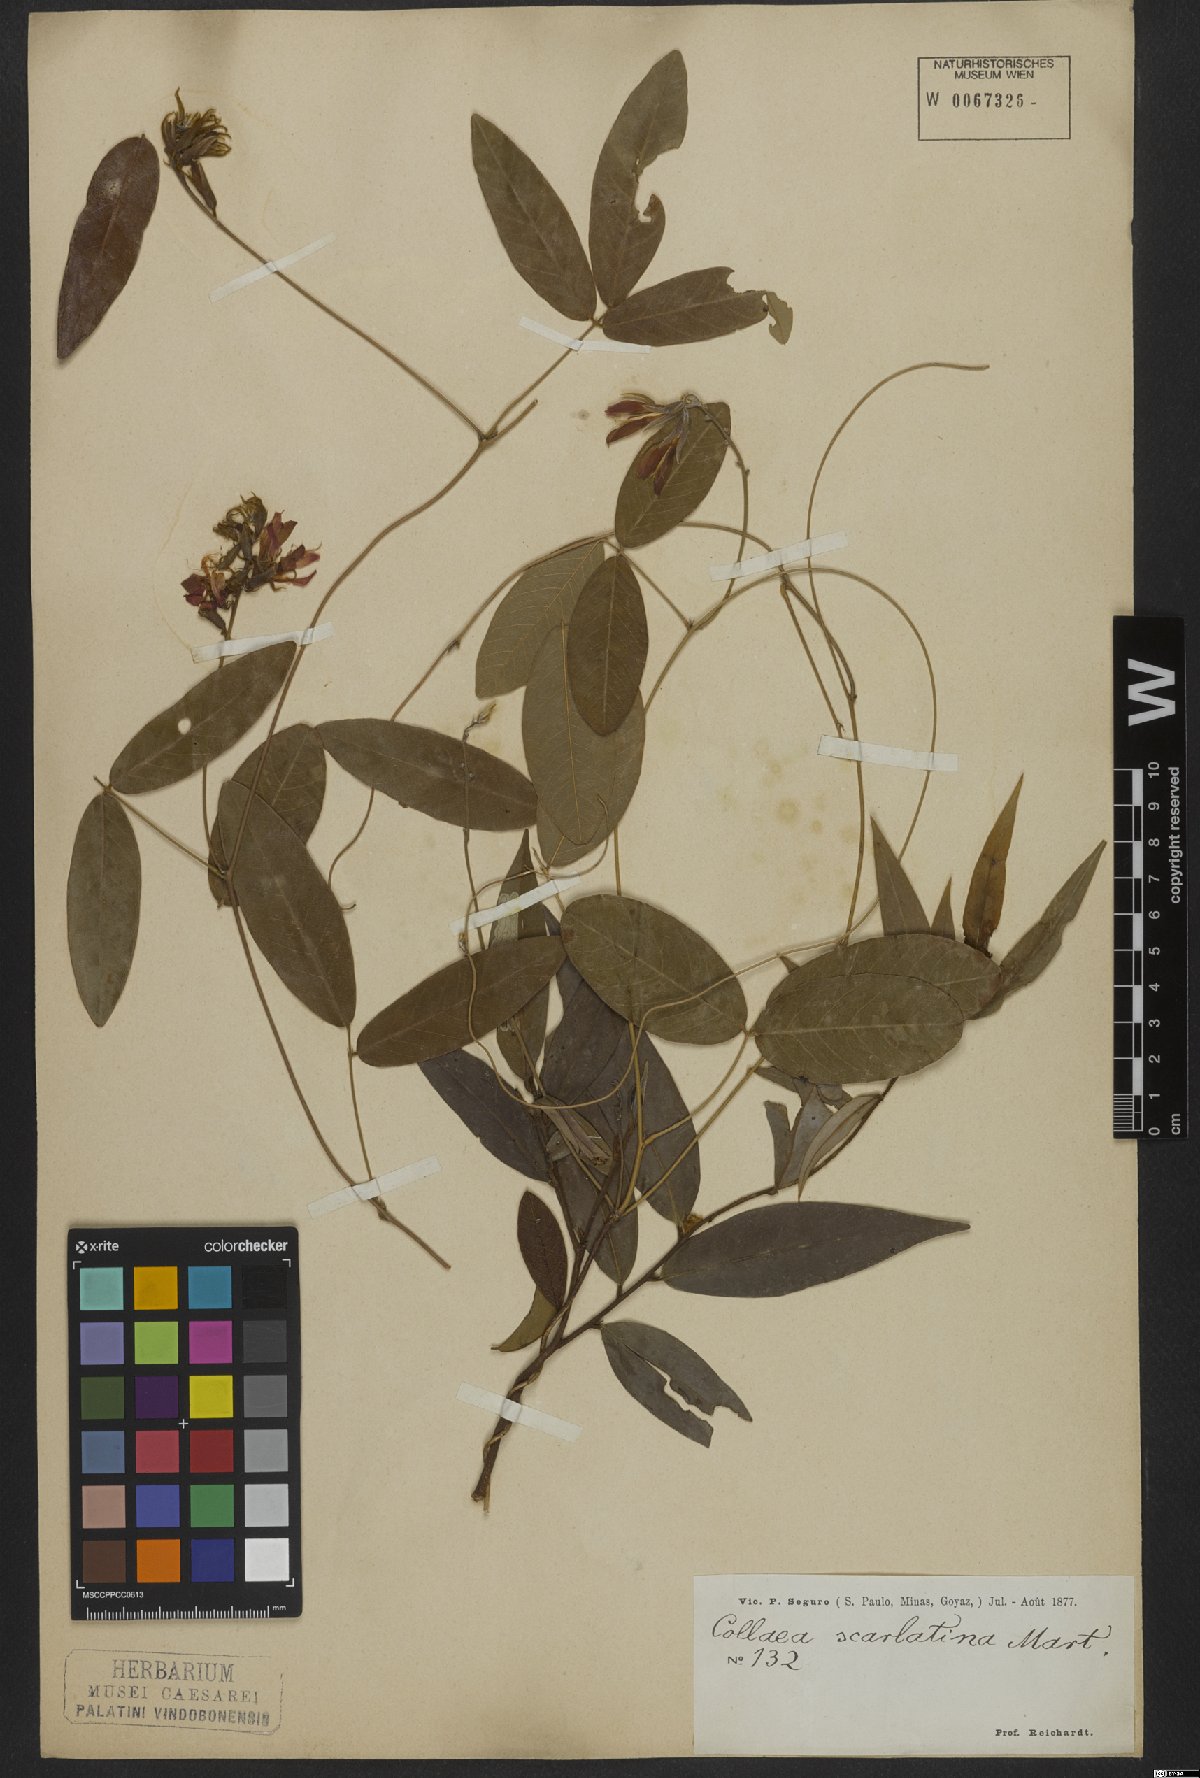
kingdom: Plantae
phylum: Tracheophyta
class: Magnoliopsida
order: Fabales
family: Fabaceae
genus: Betencourtia
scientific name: Betencourtia scarlatina
